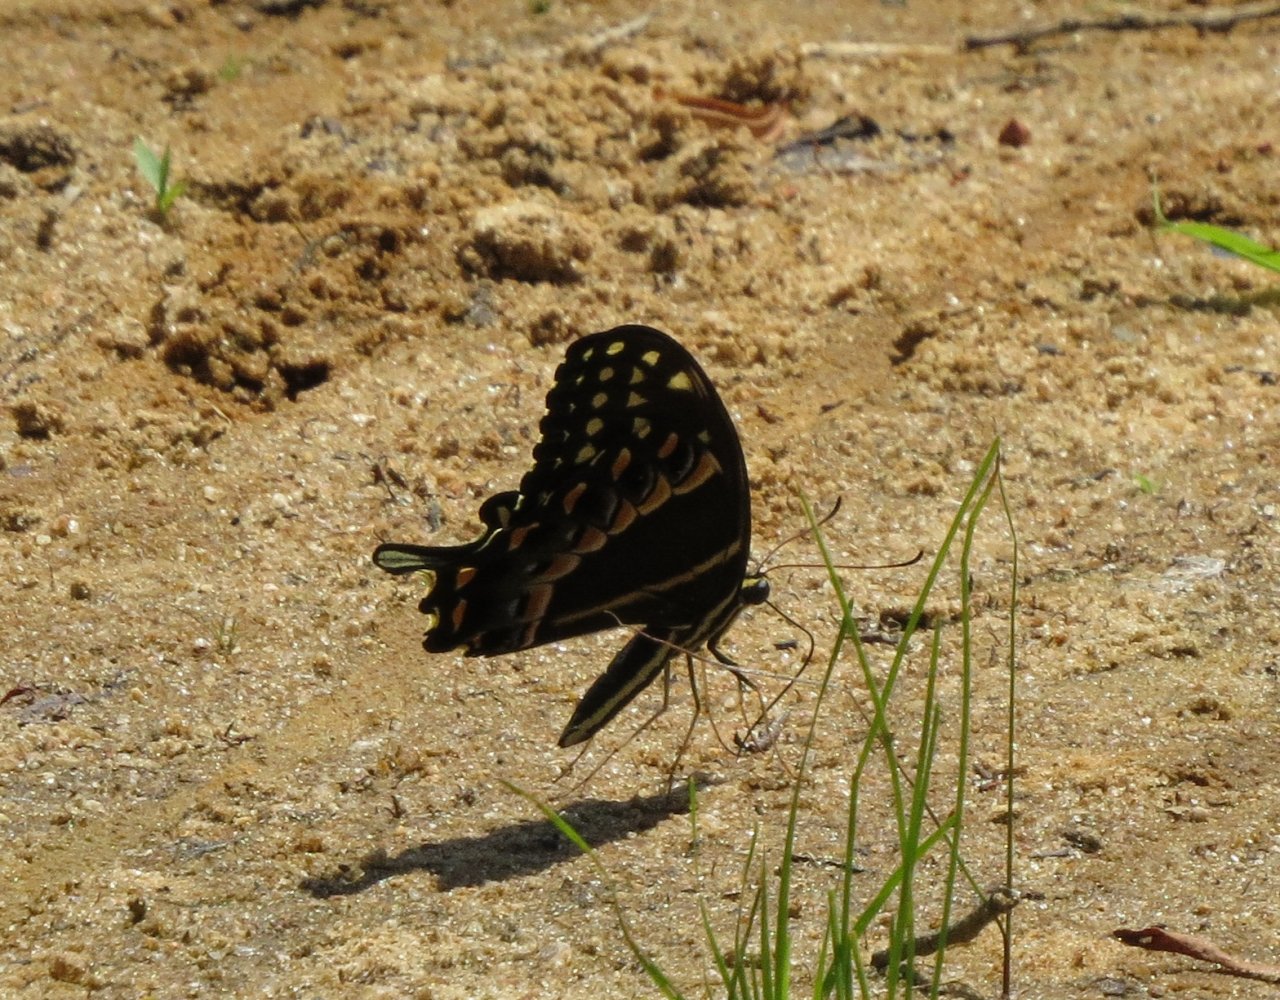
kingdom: Animalia
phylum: Arthropoda
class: Insecta
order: Lepidoptera
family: Papilionidae
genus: Pterourus
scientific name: Pterourus palamedes
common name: Palamedes Swallowtail
